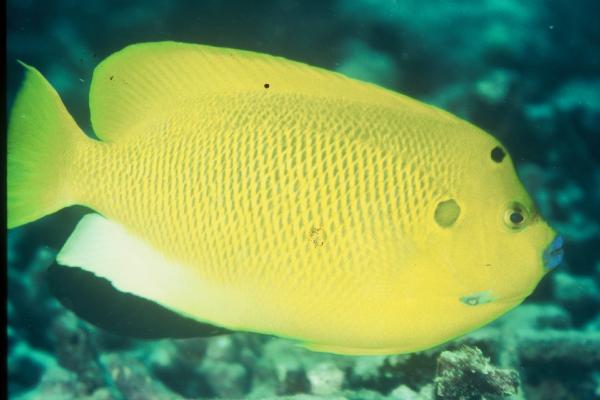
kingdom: Animalia
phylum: Chordata
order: Perciformes
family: Pomacanthidae
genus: Apolemichthys
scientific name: Apolemichthys trimaculatus
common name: Threespot angelfish
